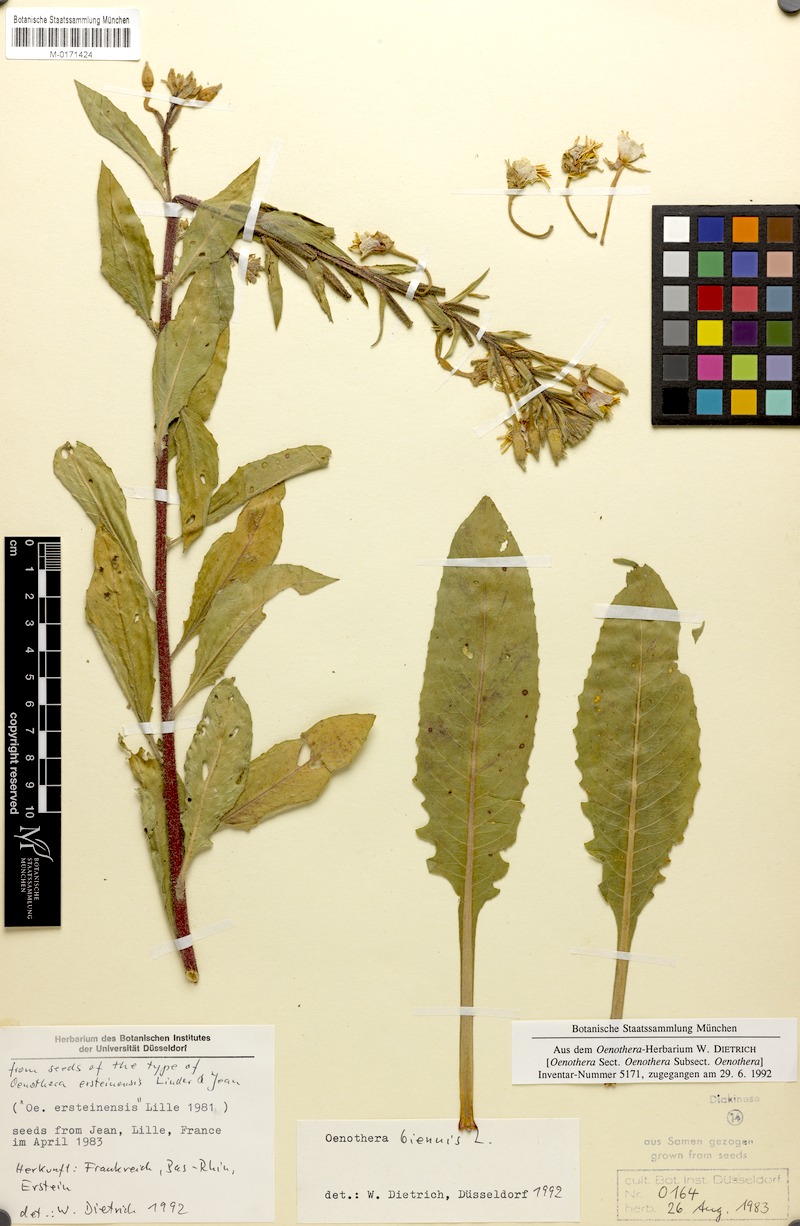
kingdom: Plantae
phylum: Tracheophyta
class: Magnoliopsida
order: Myrtales
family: Onagraceae
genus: Oenothera
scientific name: Oenothera biennis
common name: Common evening-primrose
